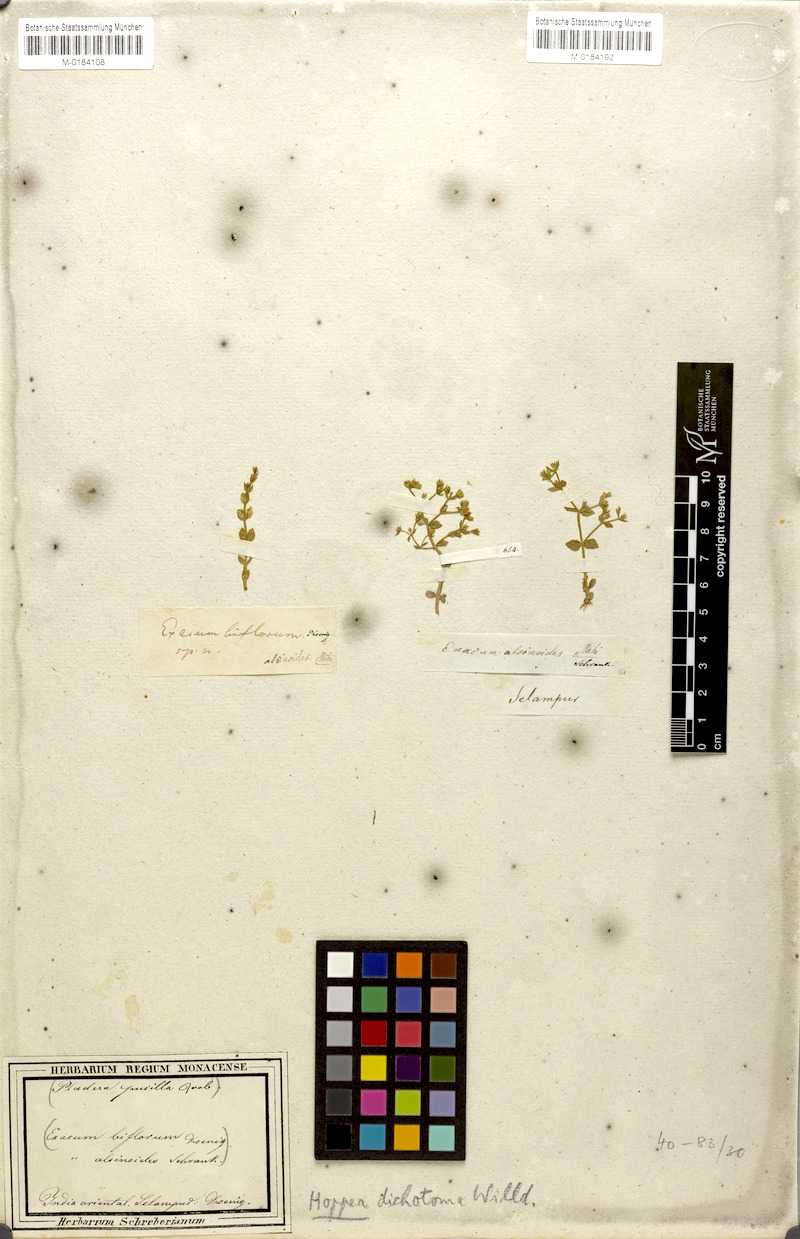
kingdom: Plantae
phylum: Tracheophyta
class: Magnoliopsida
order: Gentianales
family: Gentianaceae
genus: Hoppea
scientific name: Hoppea dichotoma
